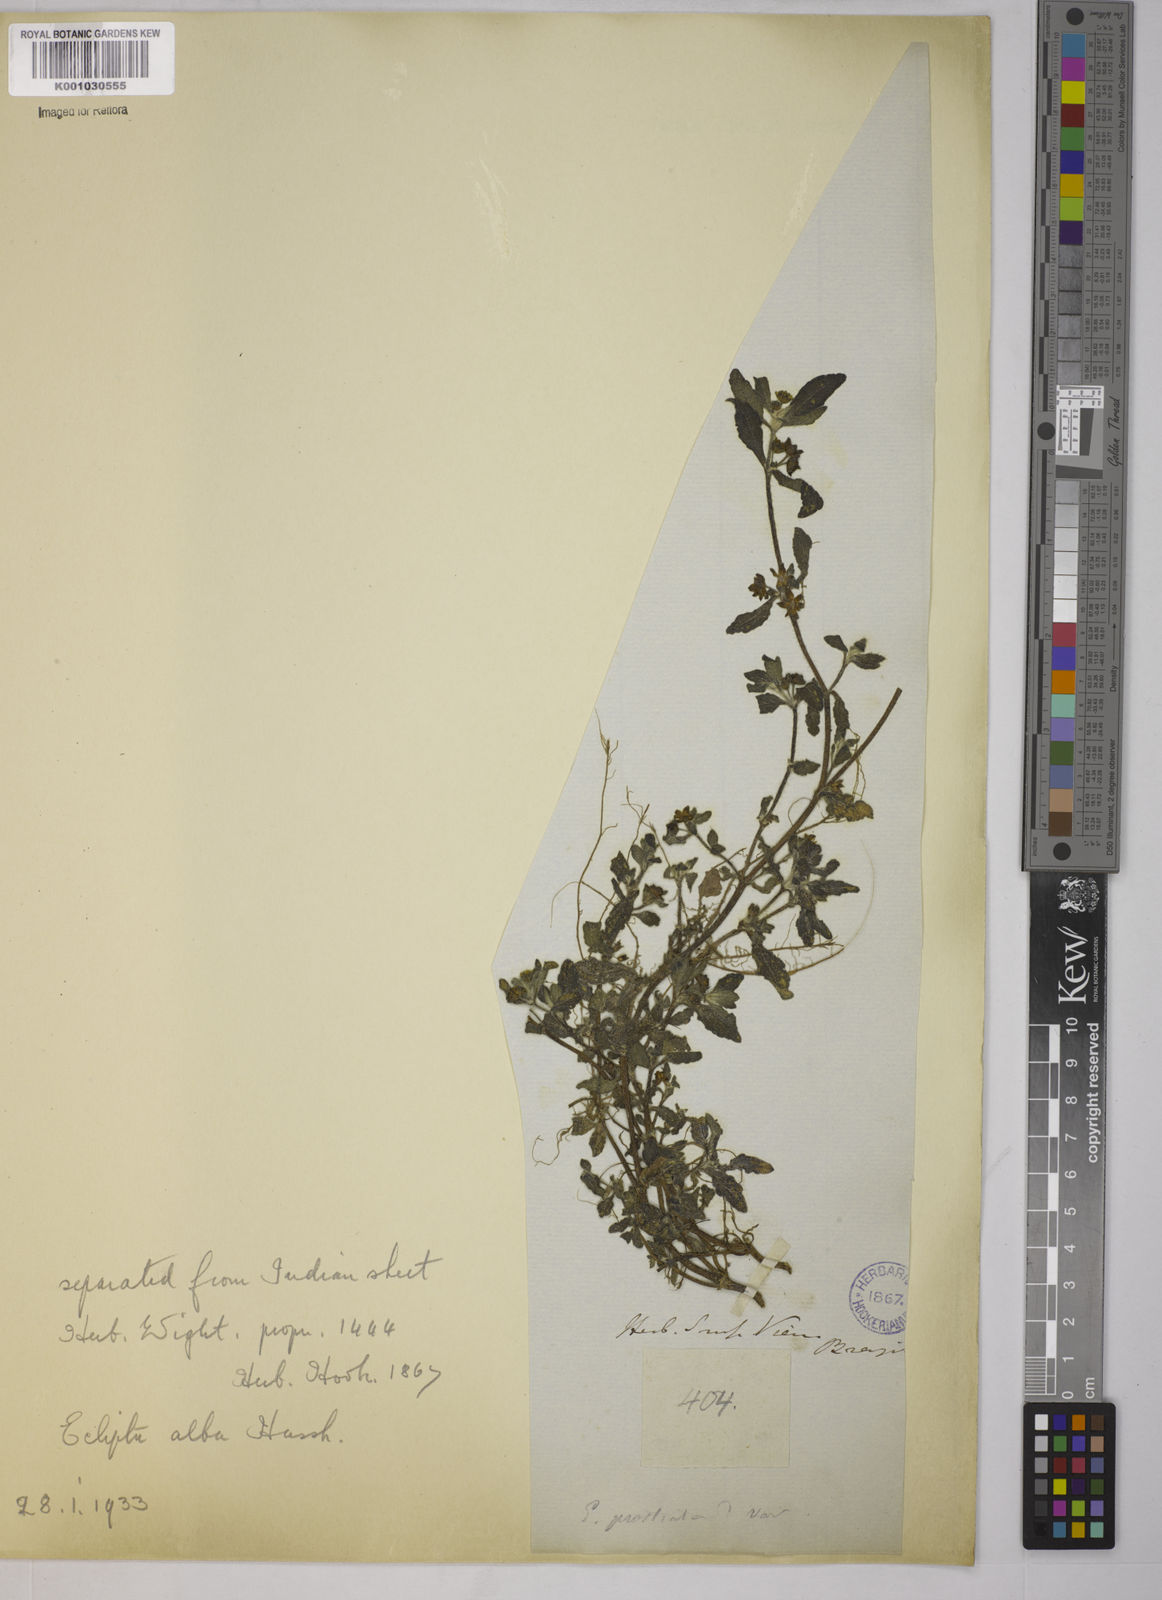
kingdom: Plantae
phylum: Tracheophyta
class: Magnoliopsida
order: Asterales
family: Asteraceae
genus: Eclipta
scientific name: Eclipta
